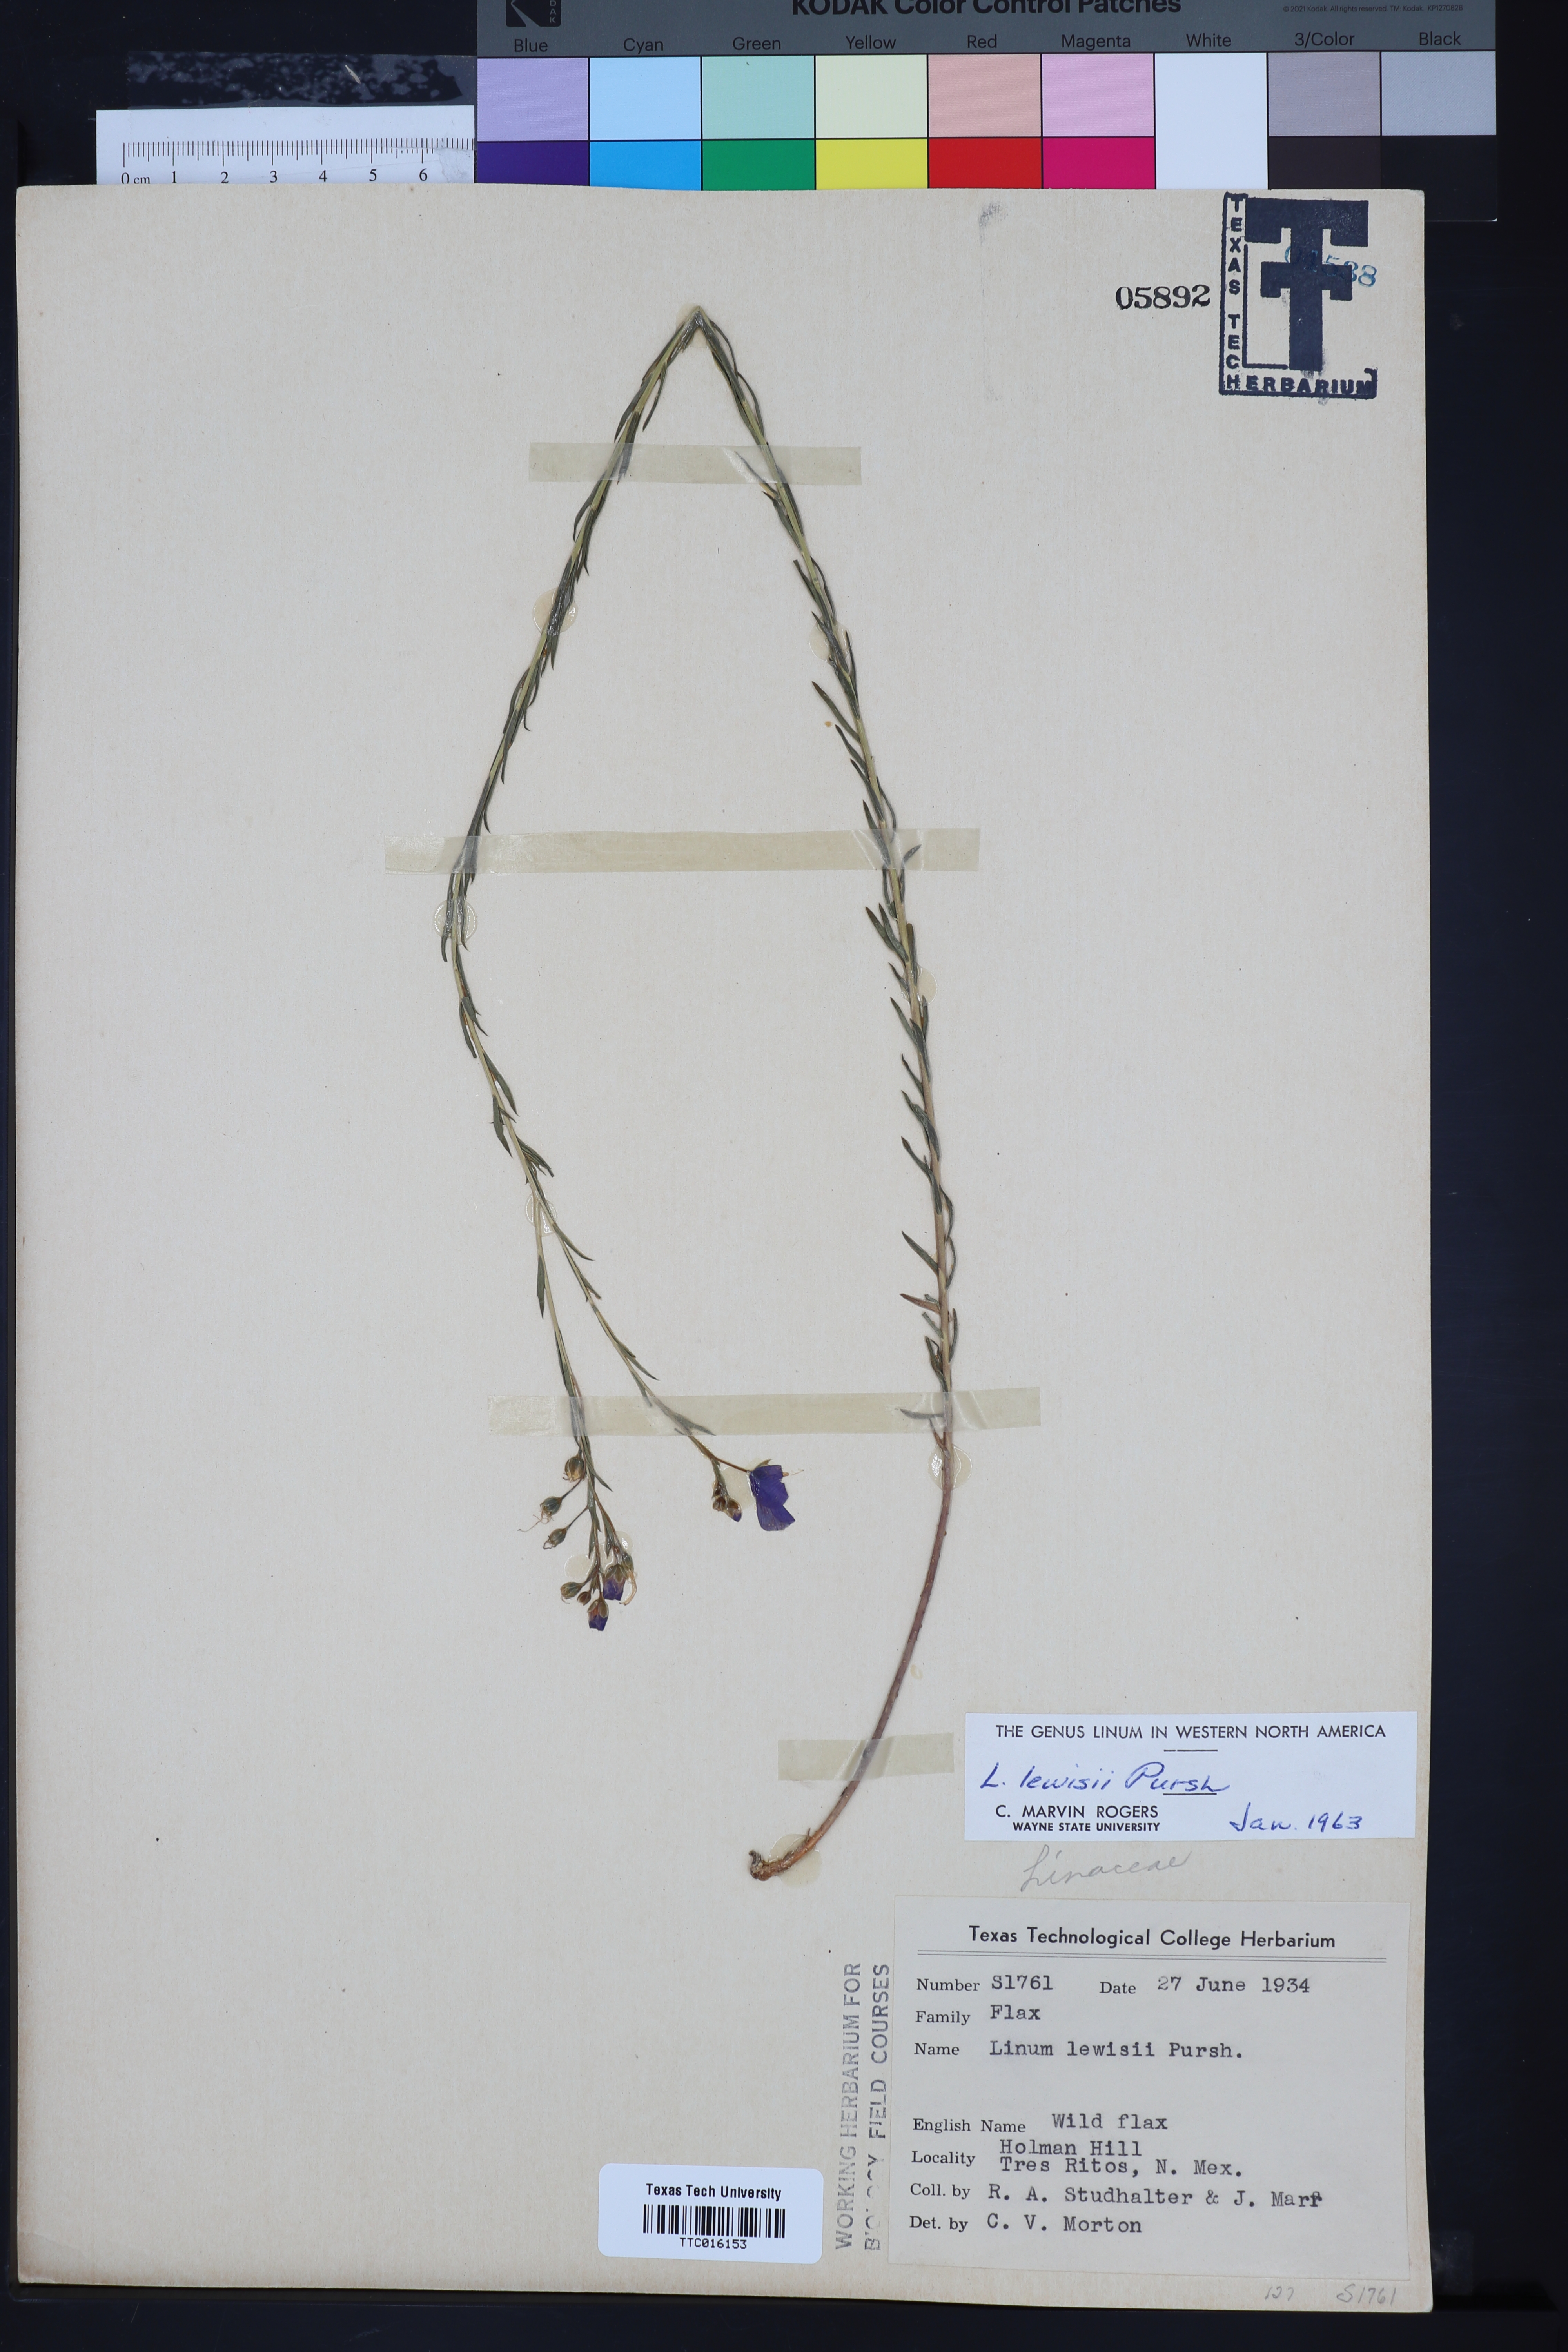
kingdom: Plantae
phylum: Tracheophyta
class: Magnoliopsida
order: Malpighiales
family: Linaceae
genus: Linum
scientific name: Linum lewisii
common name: Prairie flax
